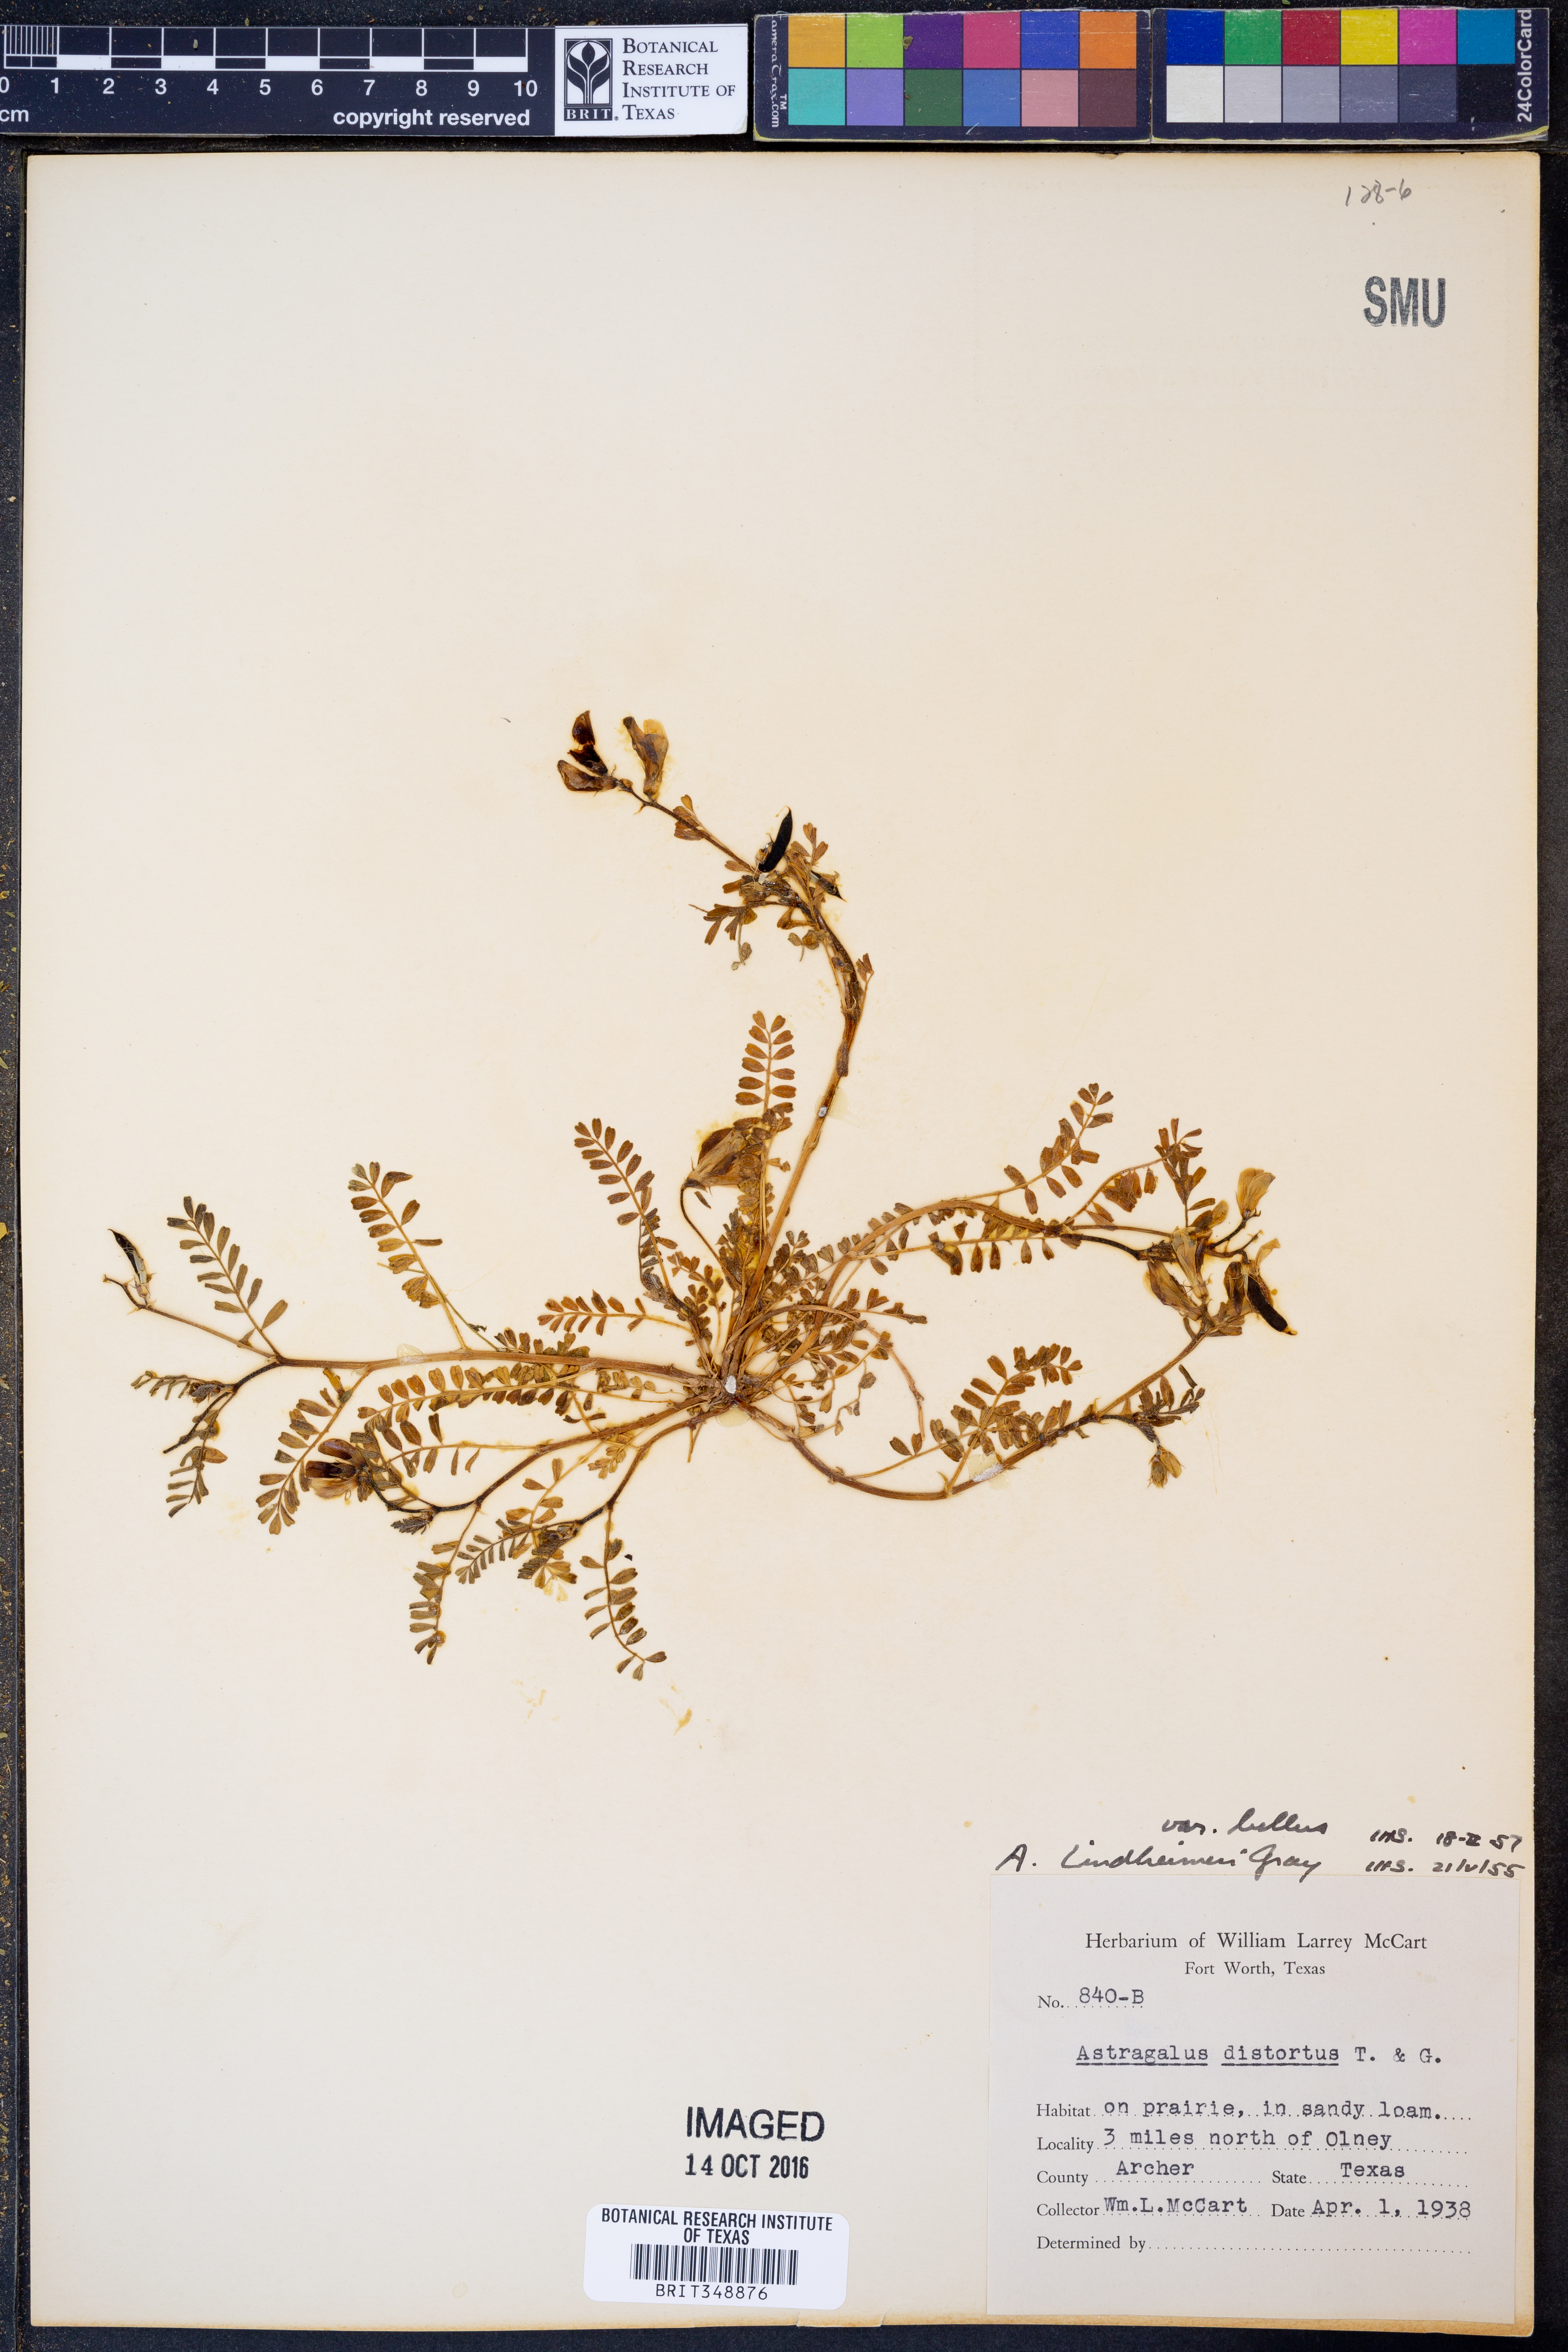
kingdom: Plantae
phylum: Tracheophyta
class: Magnoliopsida
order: Fabales
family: Fabaceae
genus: Astragalus
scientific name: Astragalus lindheimeri
